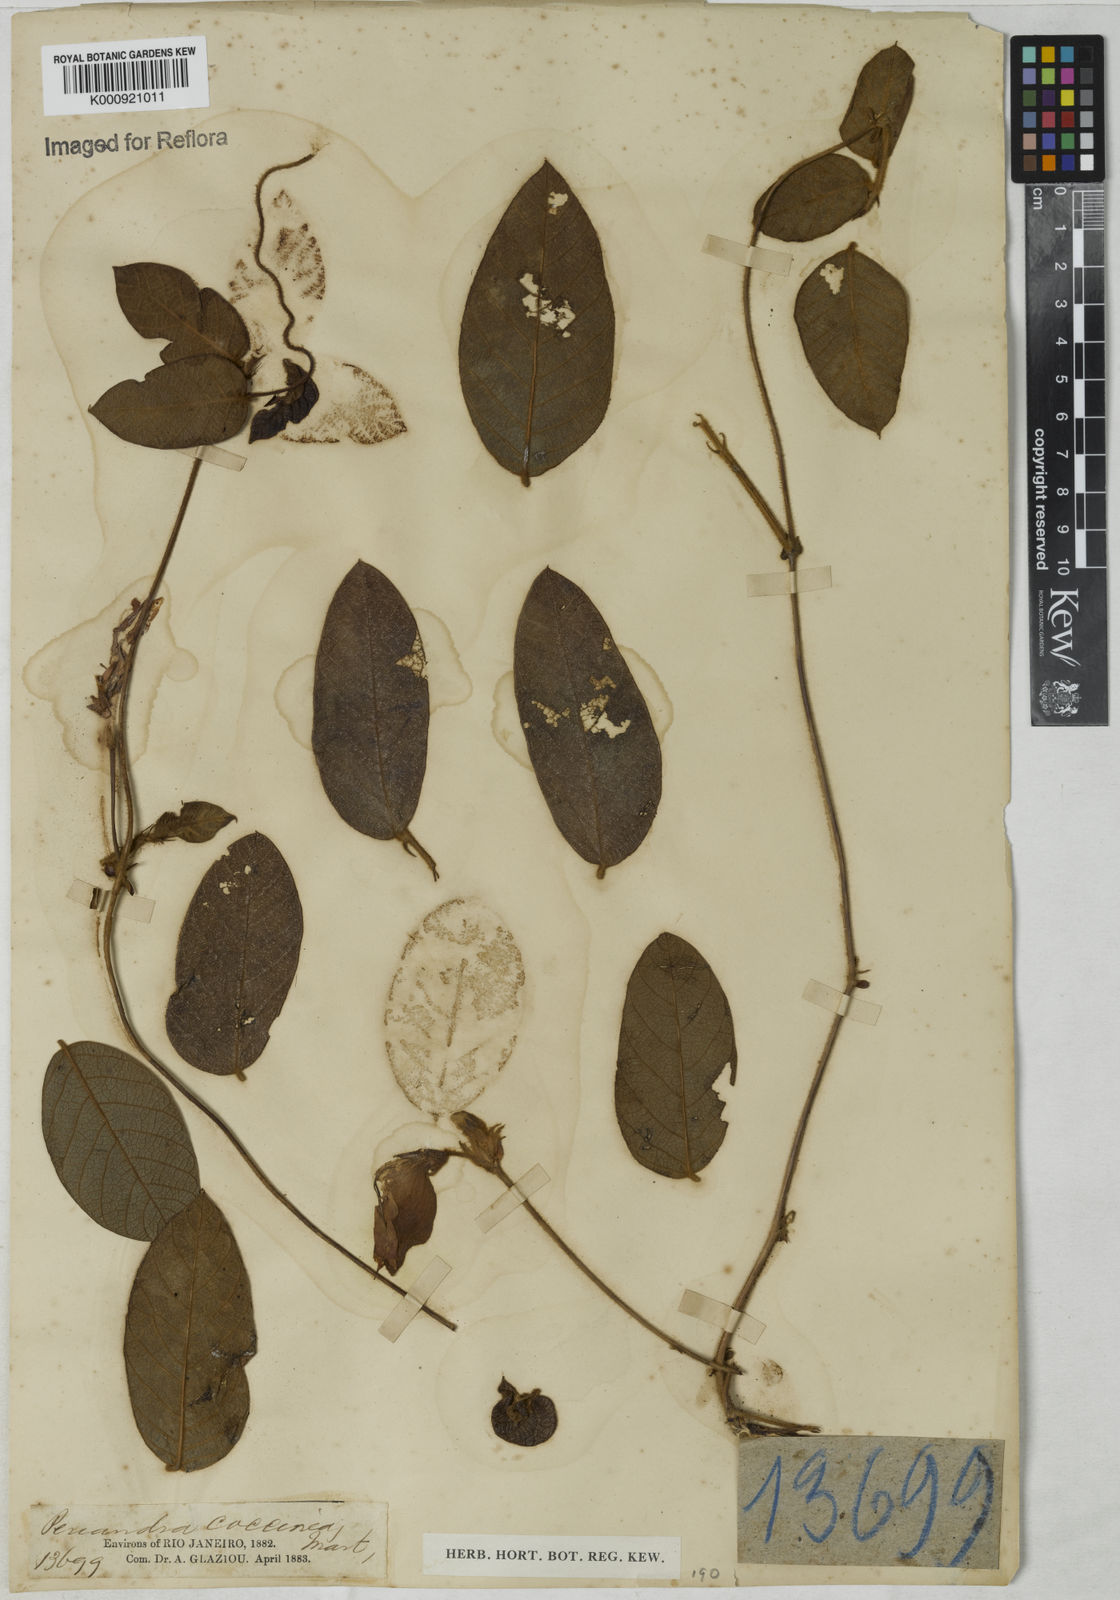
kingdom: Plantae
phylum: Tracheophyta
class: Magnoliopsida
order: Fabales
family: Fabaceae
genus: Periandra
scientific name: Periandra coccinea
